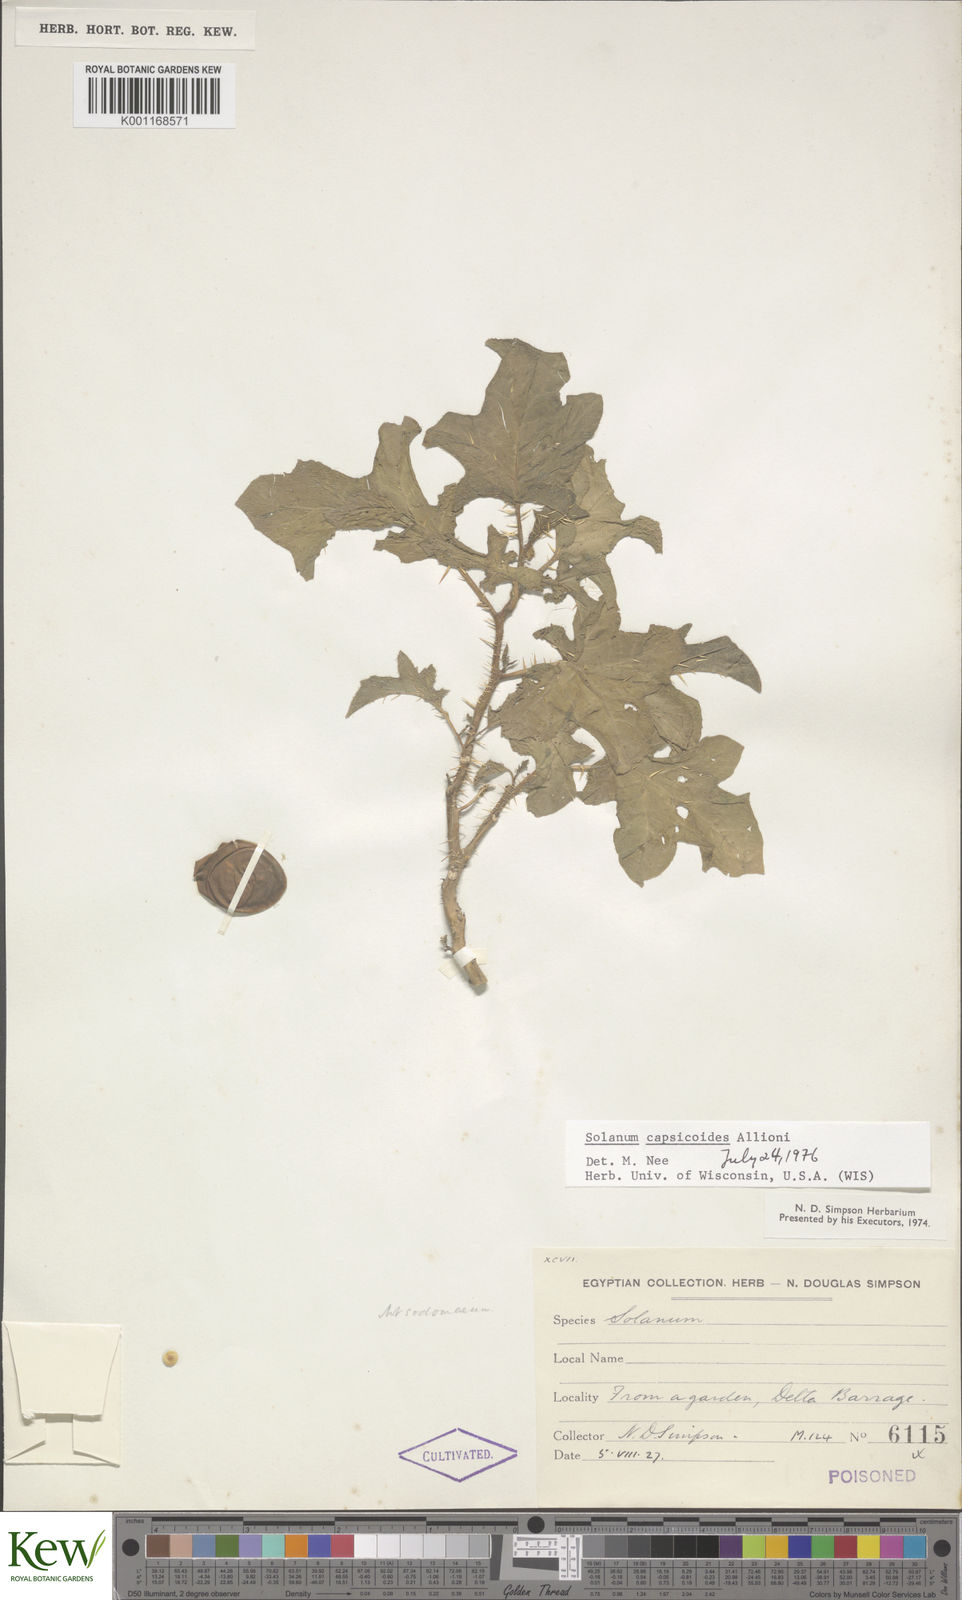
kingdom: Plantae
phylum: Tracheophyta
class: Magnoliopsida
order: Solanales
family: Solanaceae
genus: Solanum
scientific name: Solanum capsicoides
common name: Cockroach berry
